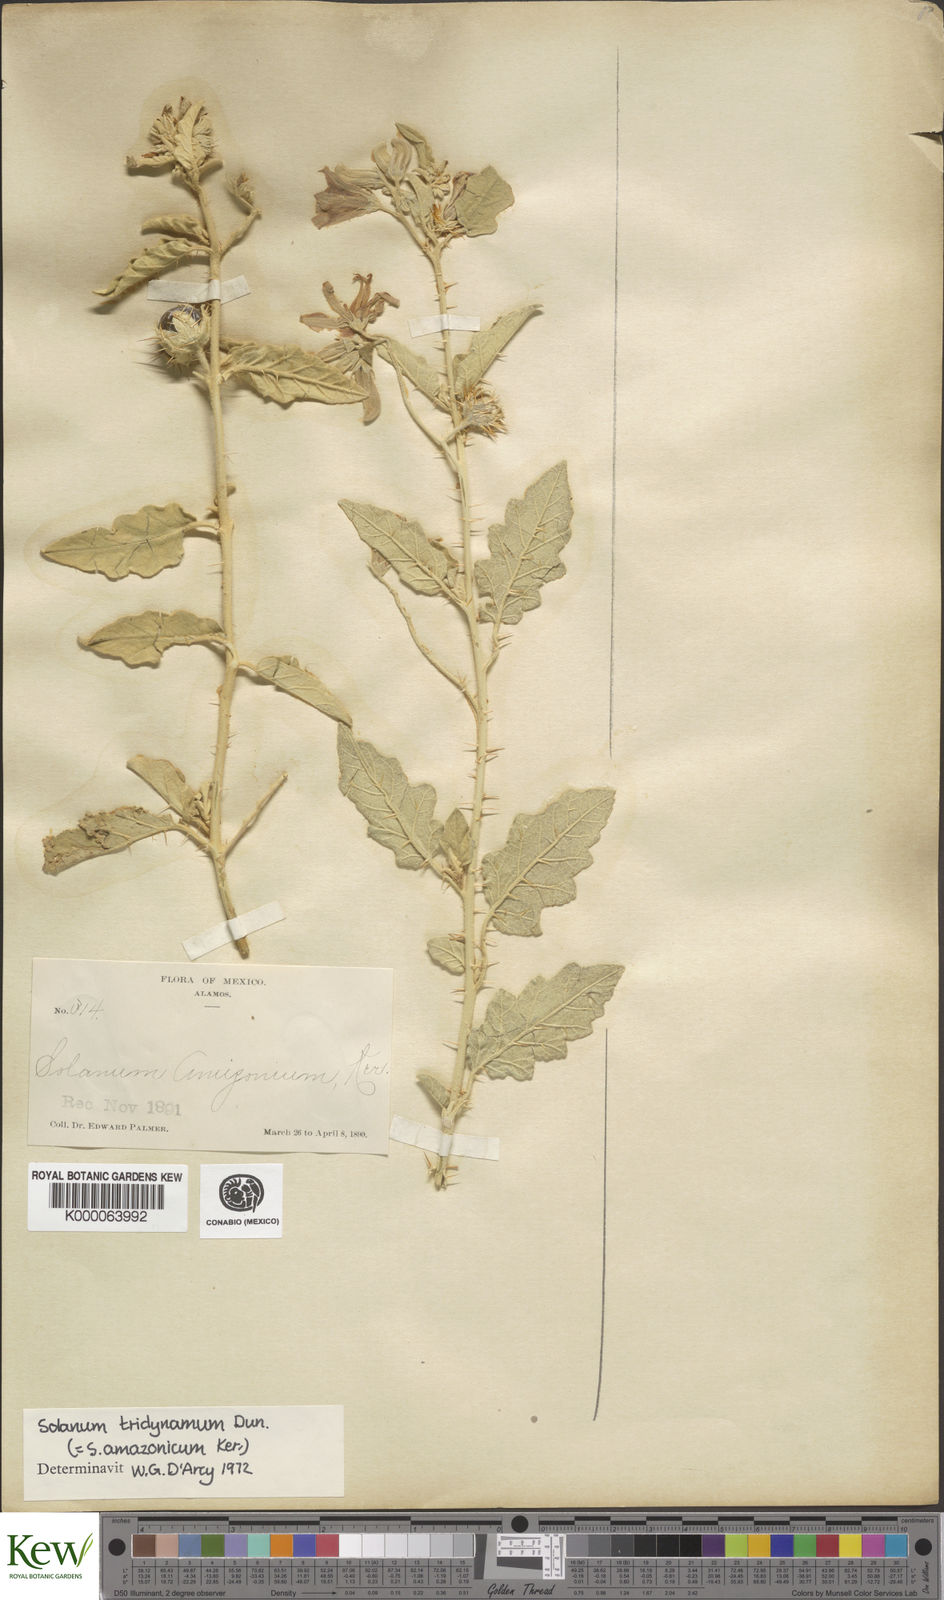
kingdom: Plantae
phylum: Tracheophyta
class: Magnoliopsida
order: Solanales
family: Solanaceae
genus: Solanum
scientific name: Solanum houstonii
